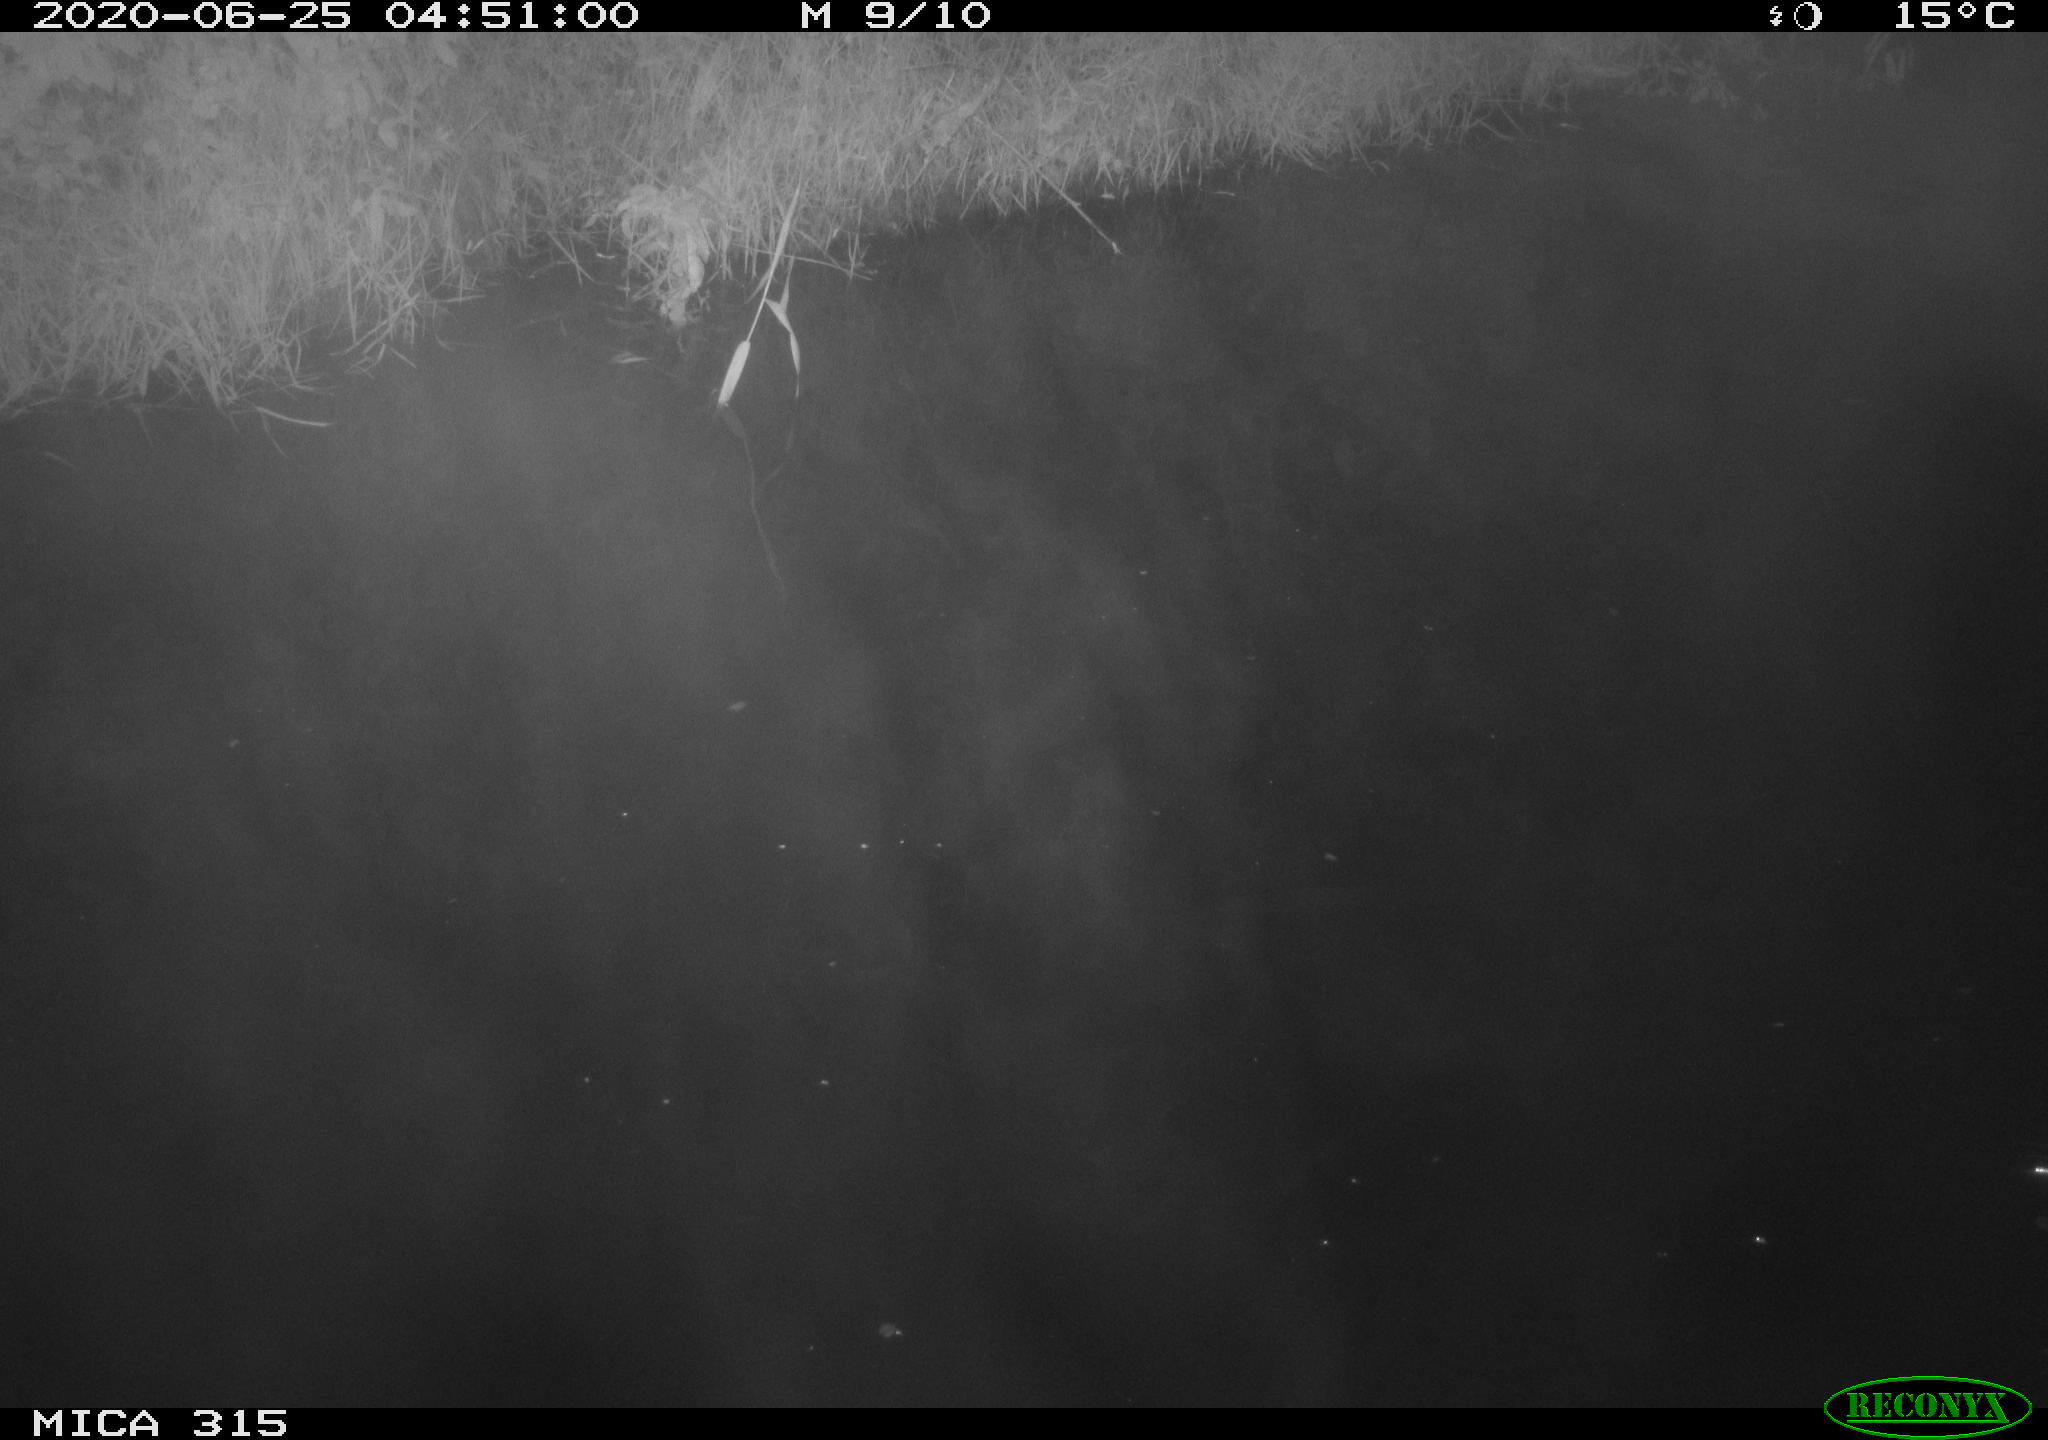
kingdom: Animalia
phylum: Chordata
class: Aves
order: Anseriformes
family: Anatidae
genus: Anas
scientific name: Anas platyrhynchos
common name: Mallard
